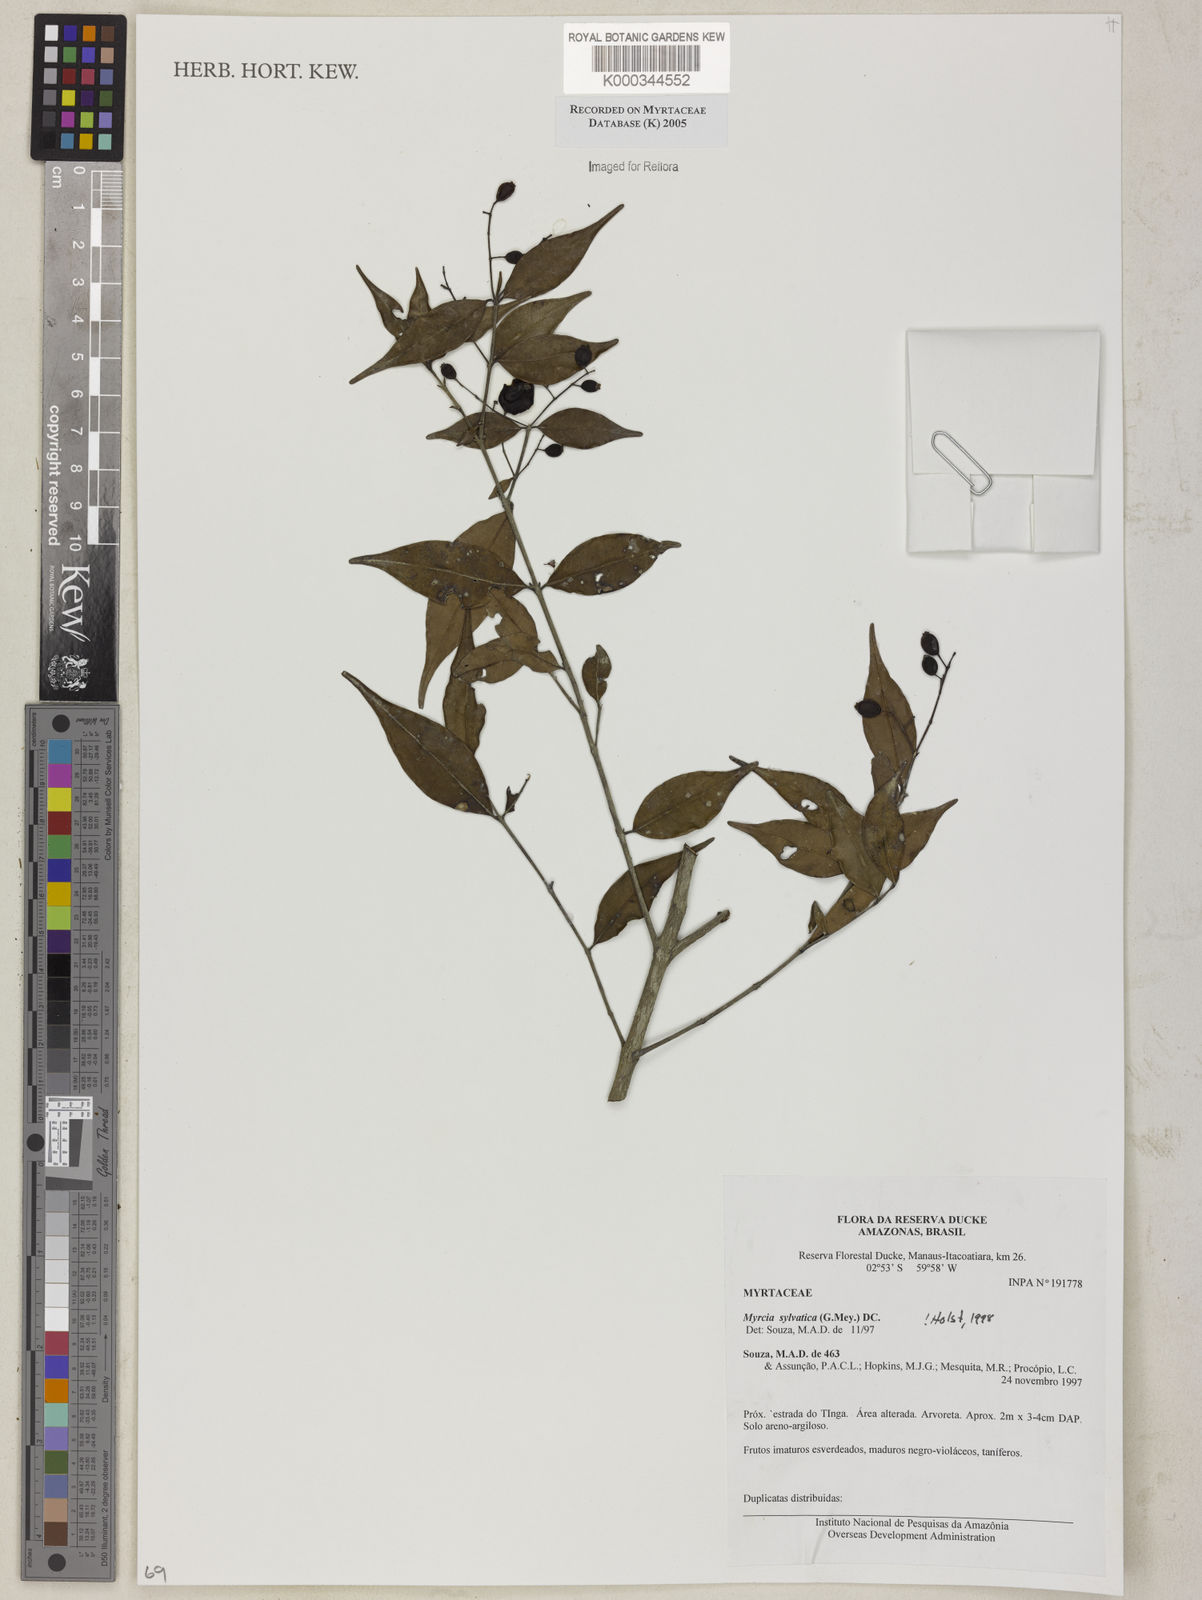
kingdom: Plantae
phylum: Tracheophyta
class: Magnoliopsida
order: Myrtales
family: Myrtaceae
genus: Myrcia
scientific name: Myrcia sylvatica
